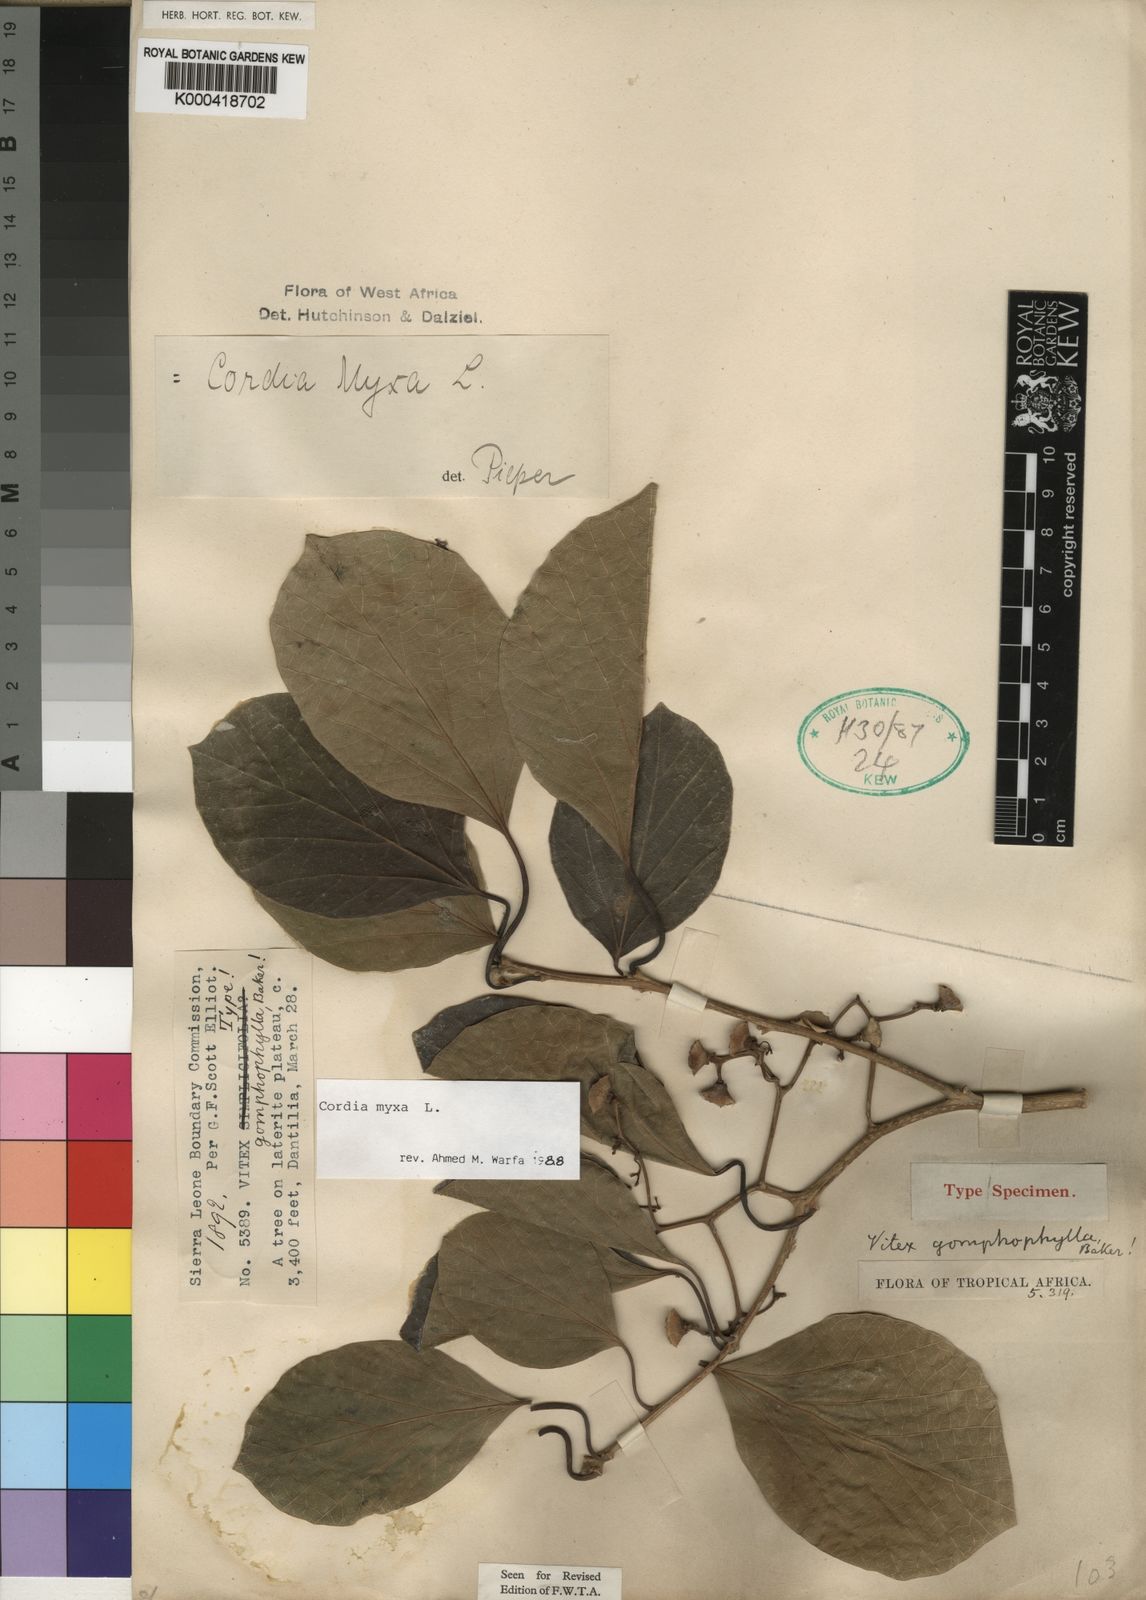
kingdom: Plantae
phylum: Tracheophyta
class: Magnoliopsida
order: Boraginales
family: Cordiaceae
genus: Cordia
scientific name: Cordia myxa
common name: Assyrian plum
